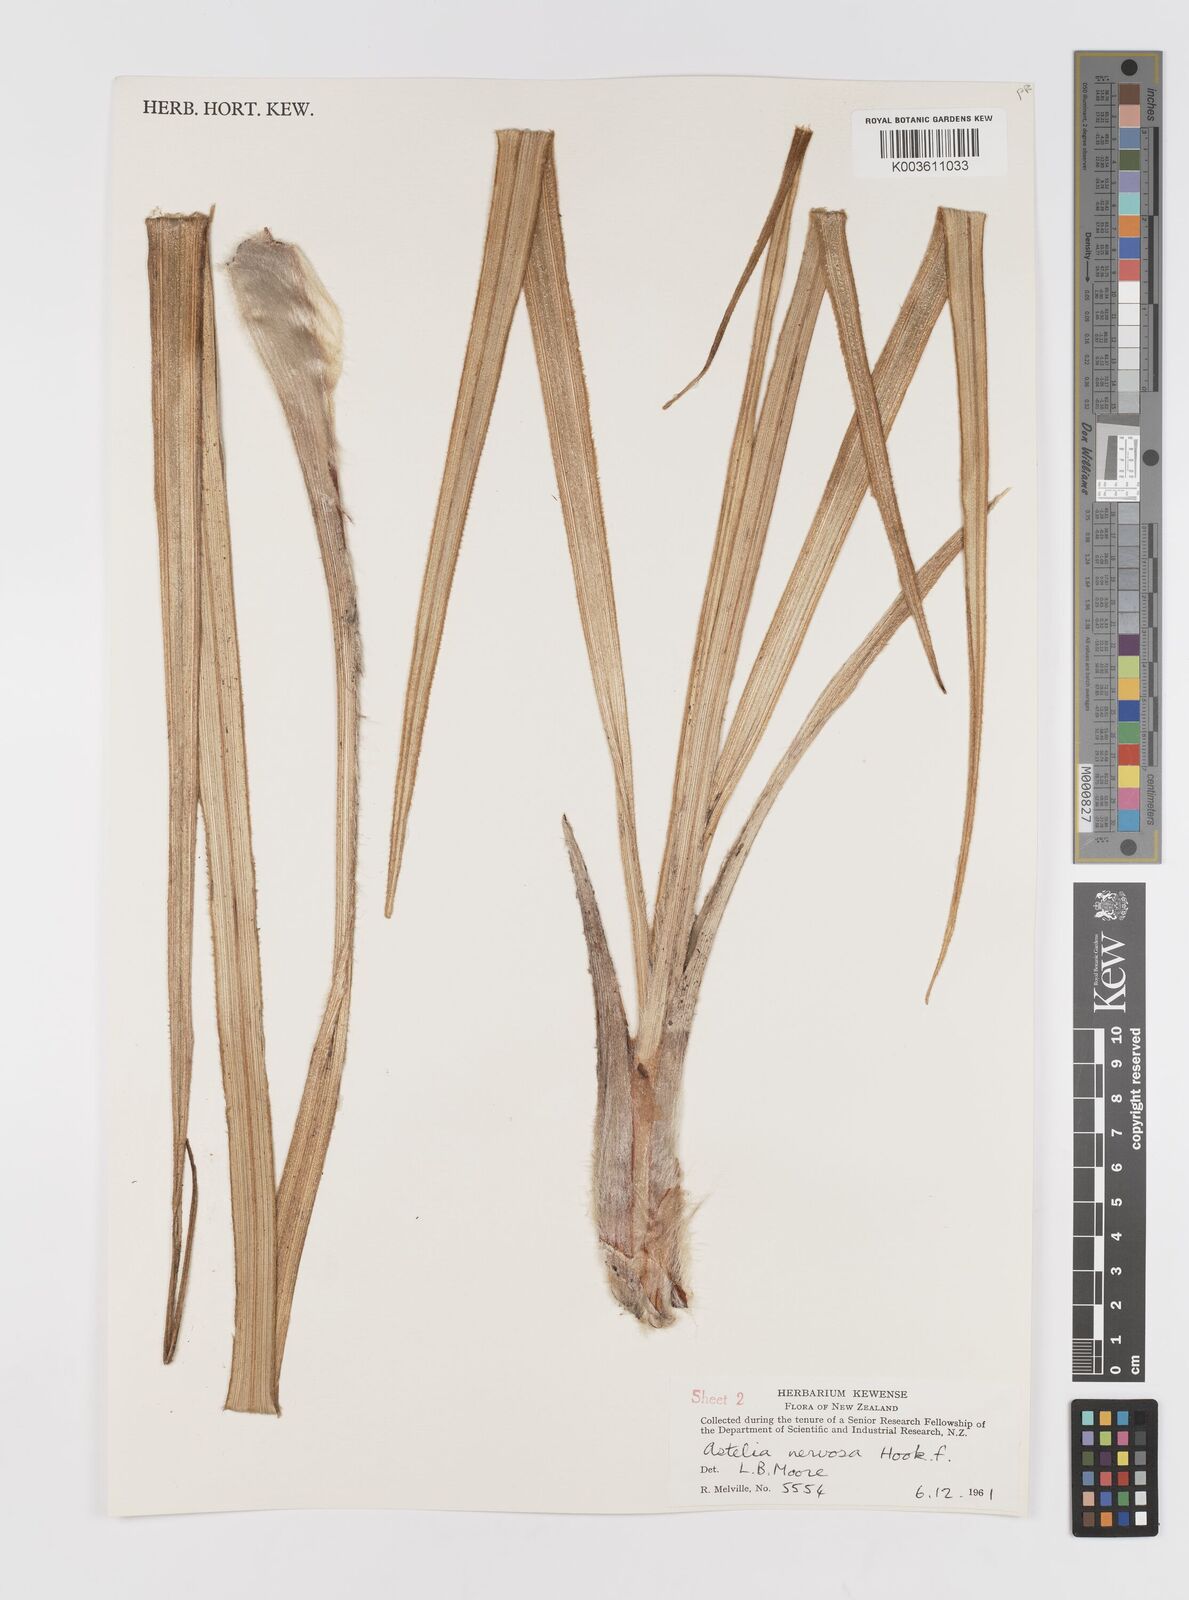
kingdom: Plantae
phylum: Tracheophyta
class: Liliopsida
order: Asparagales
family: Asteliaceae
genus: Astelia
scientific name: Astelia nervosa
